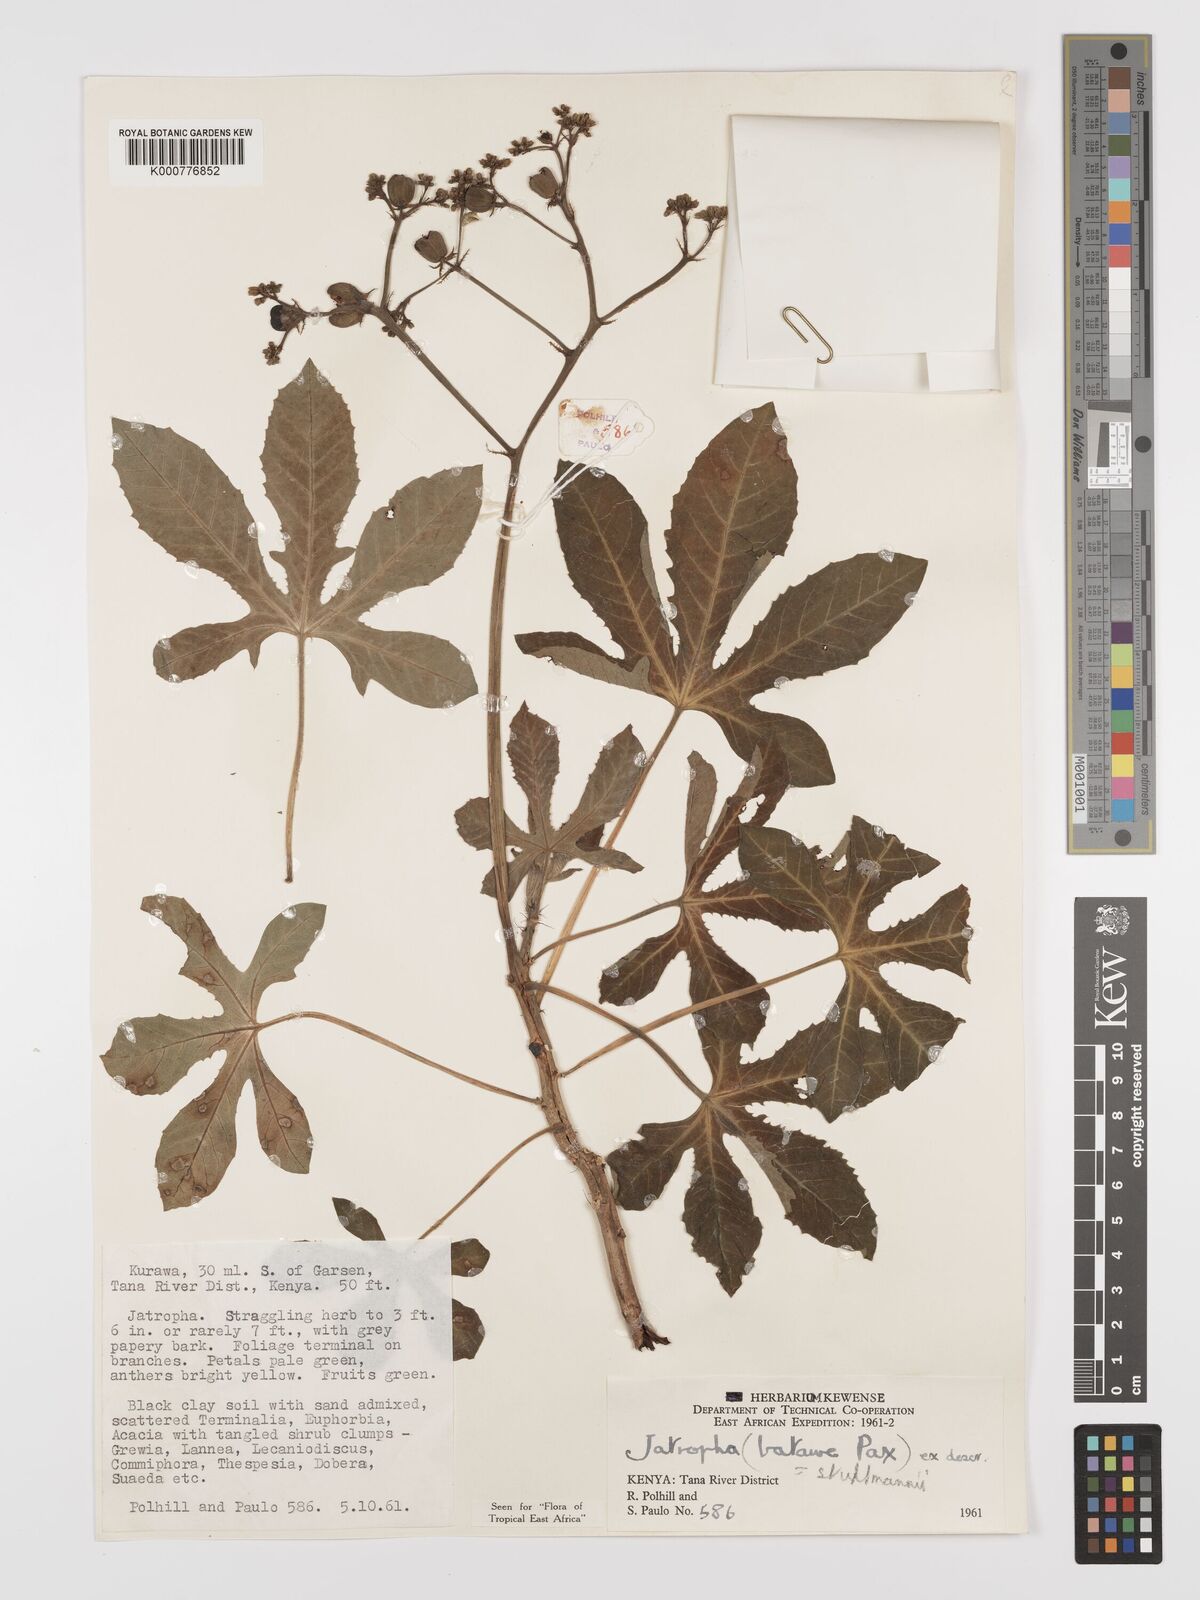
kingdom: Plantae
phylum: Tracheophyta
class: Magnoliopsida
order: Malpighiales
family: Euphorbiaceae
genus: Jatropha
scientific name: Jatropha stuhlmannii
